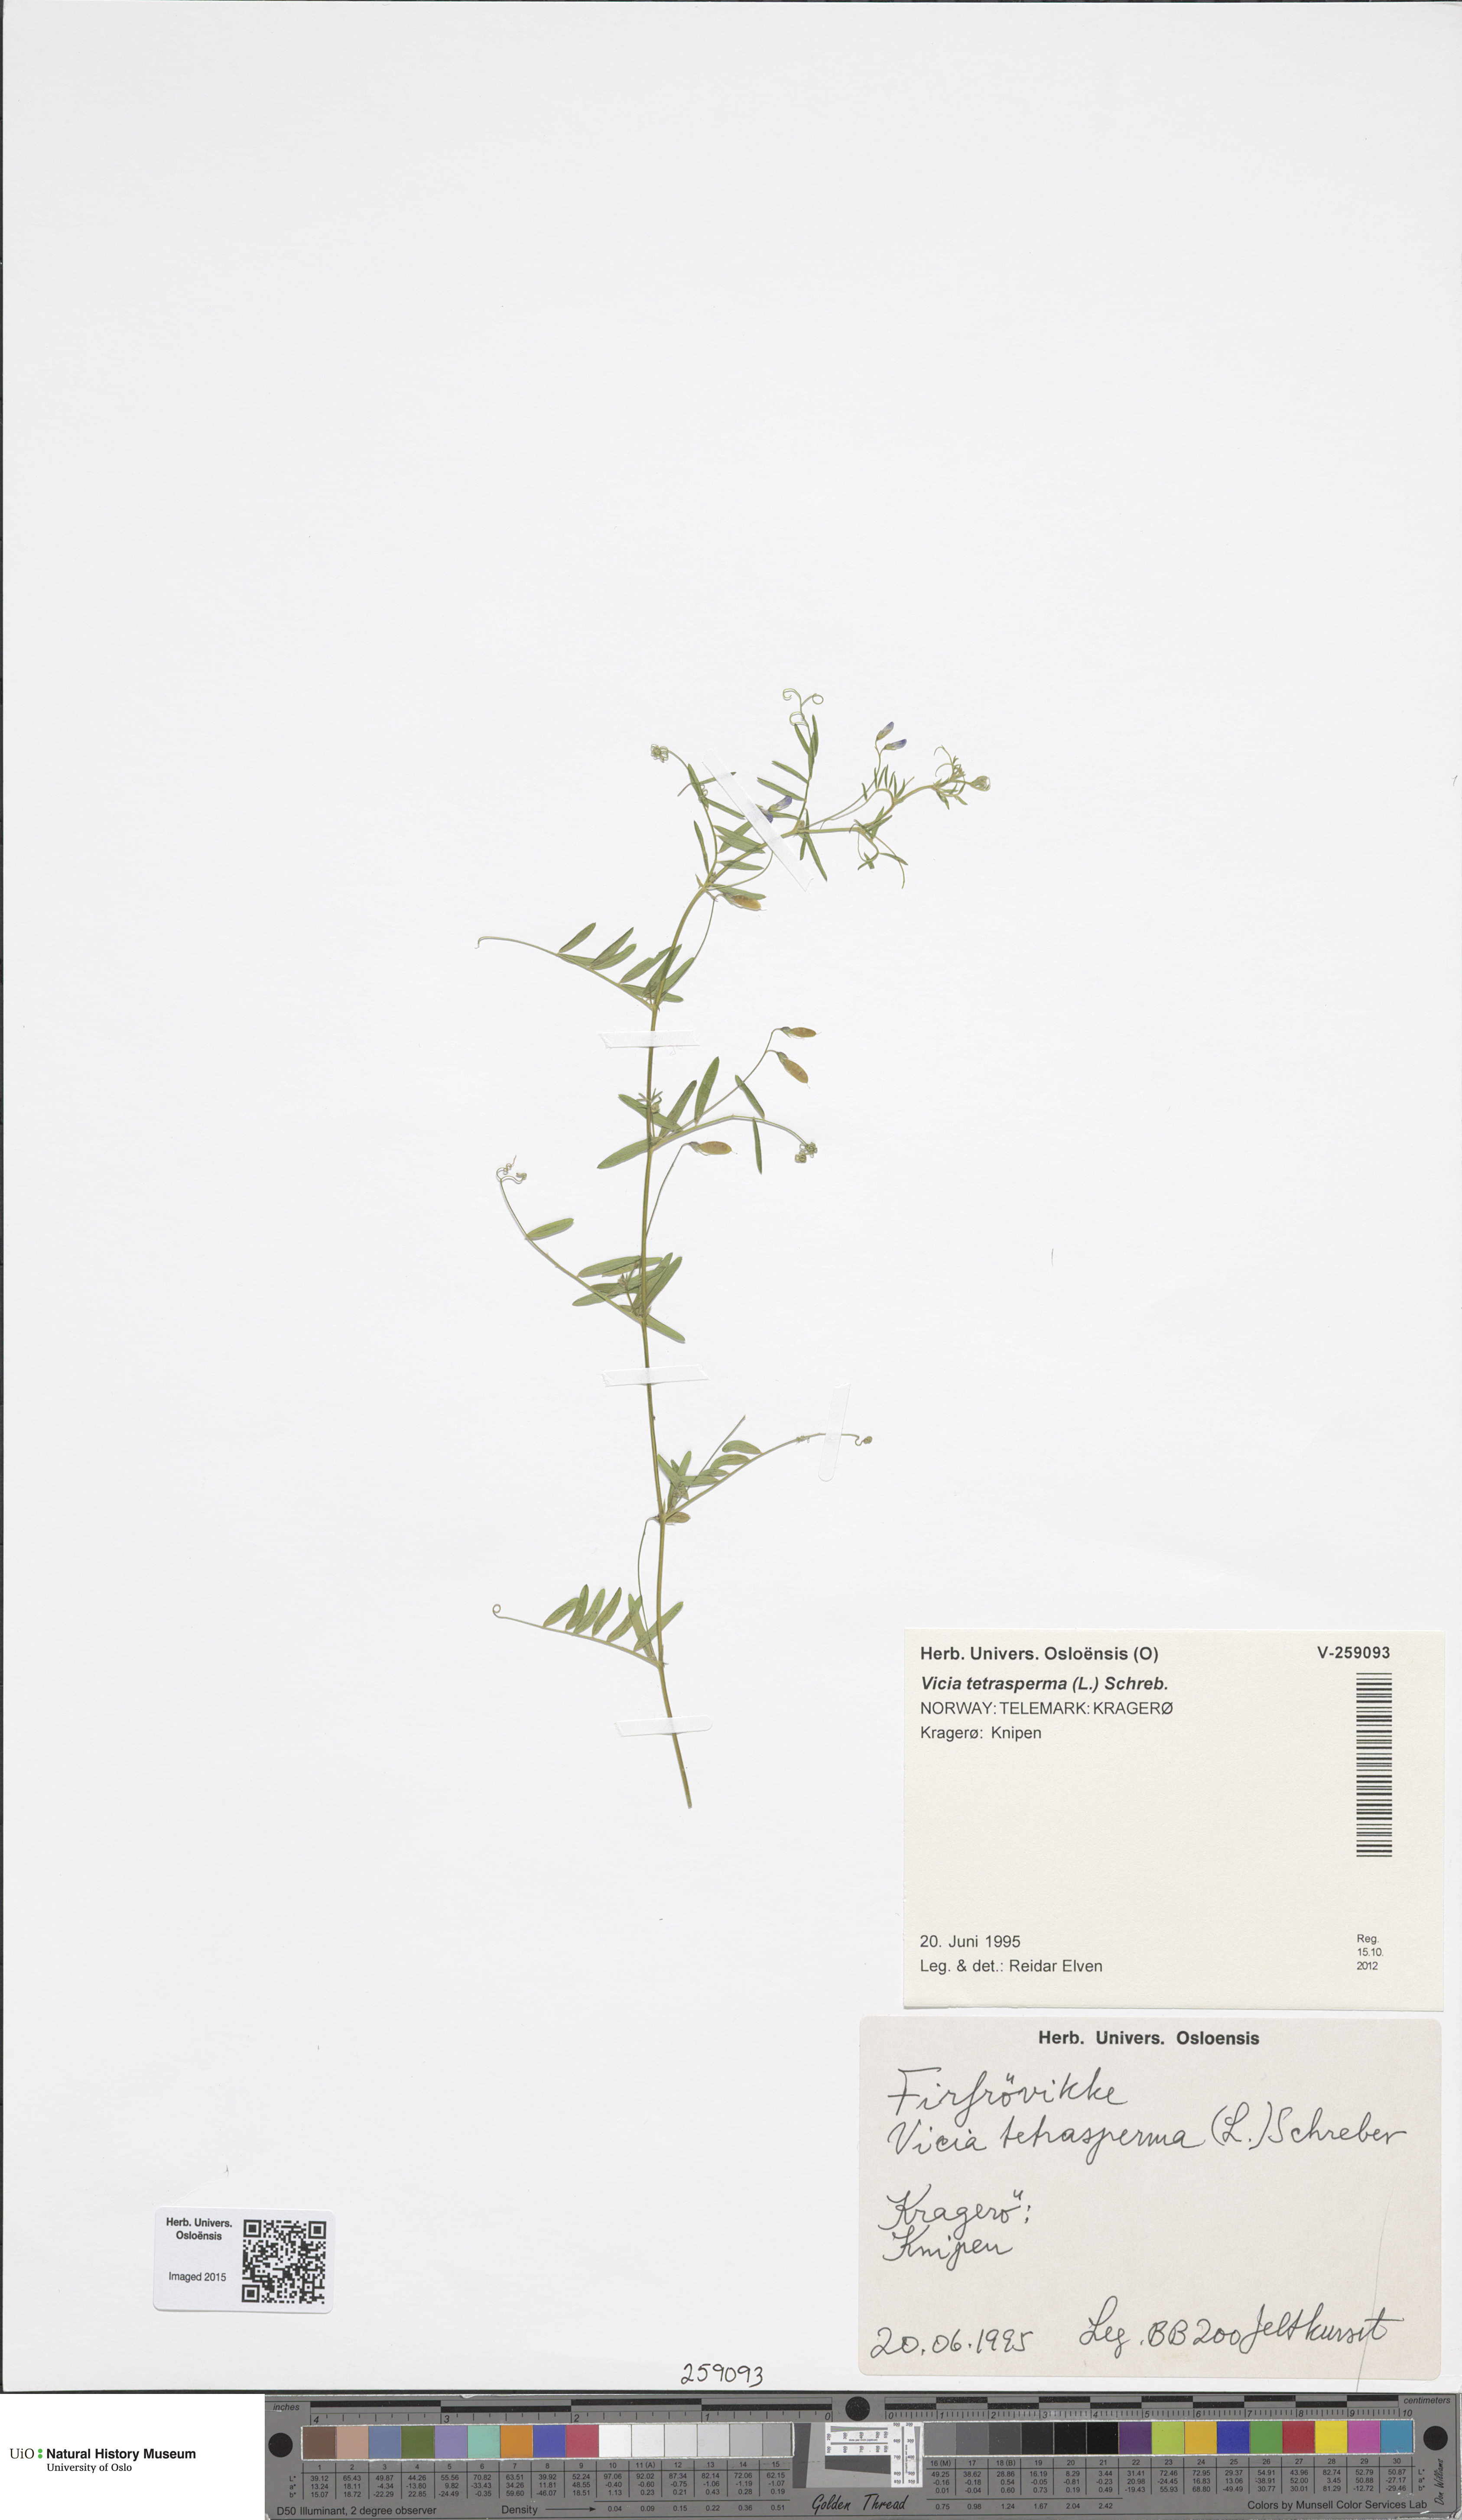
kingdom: Plantae
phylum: Tracheophyta
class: Magnoliopsida
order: Fabales
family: Fabaceae
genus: Vicia
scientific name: Vicia tetrasperma
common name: Smooth tare
